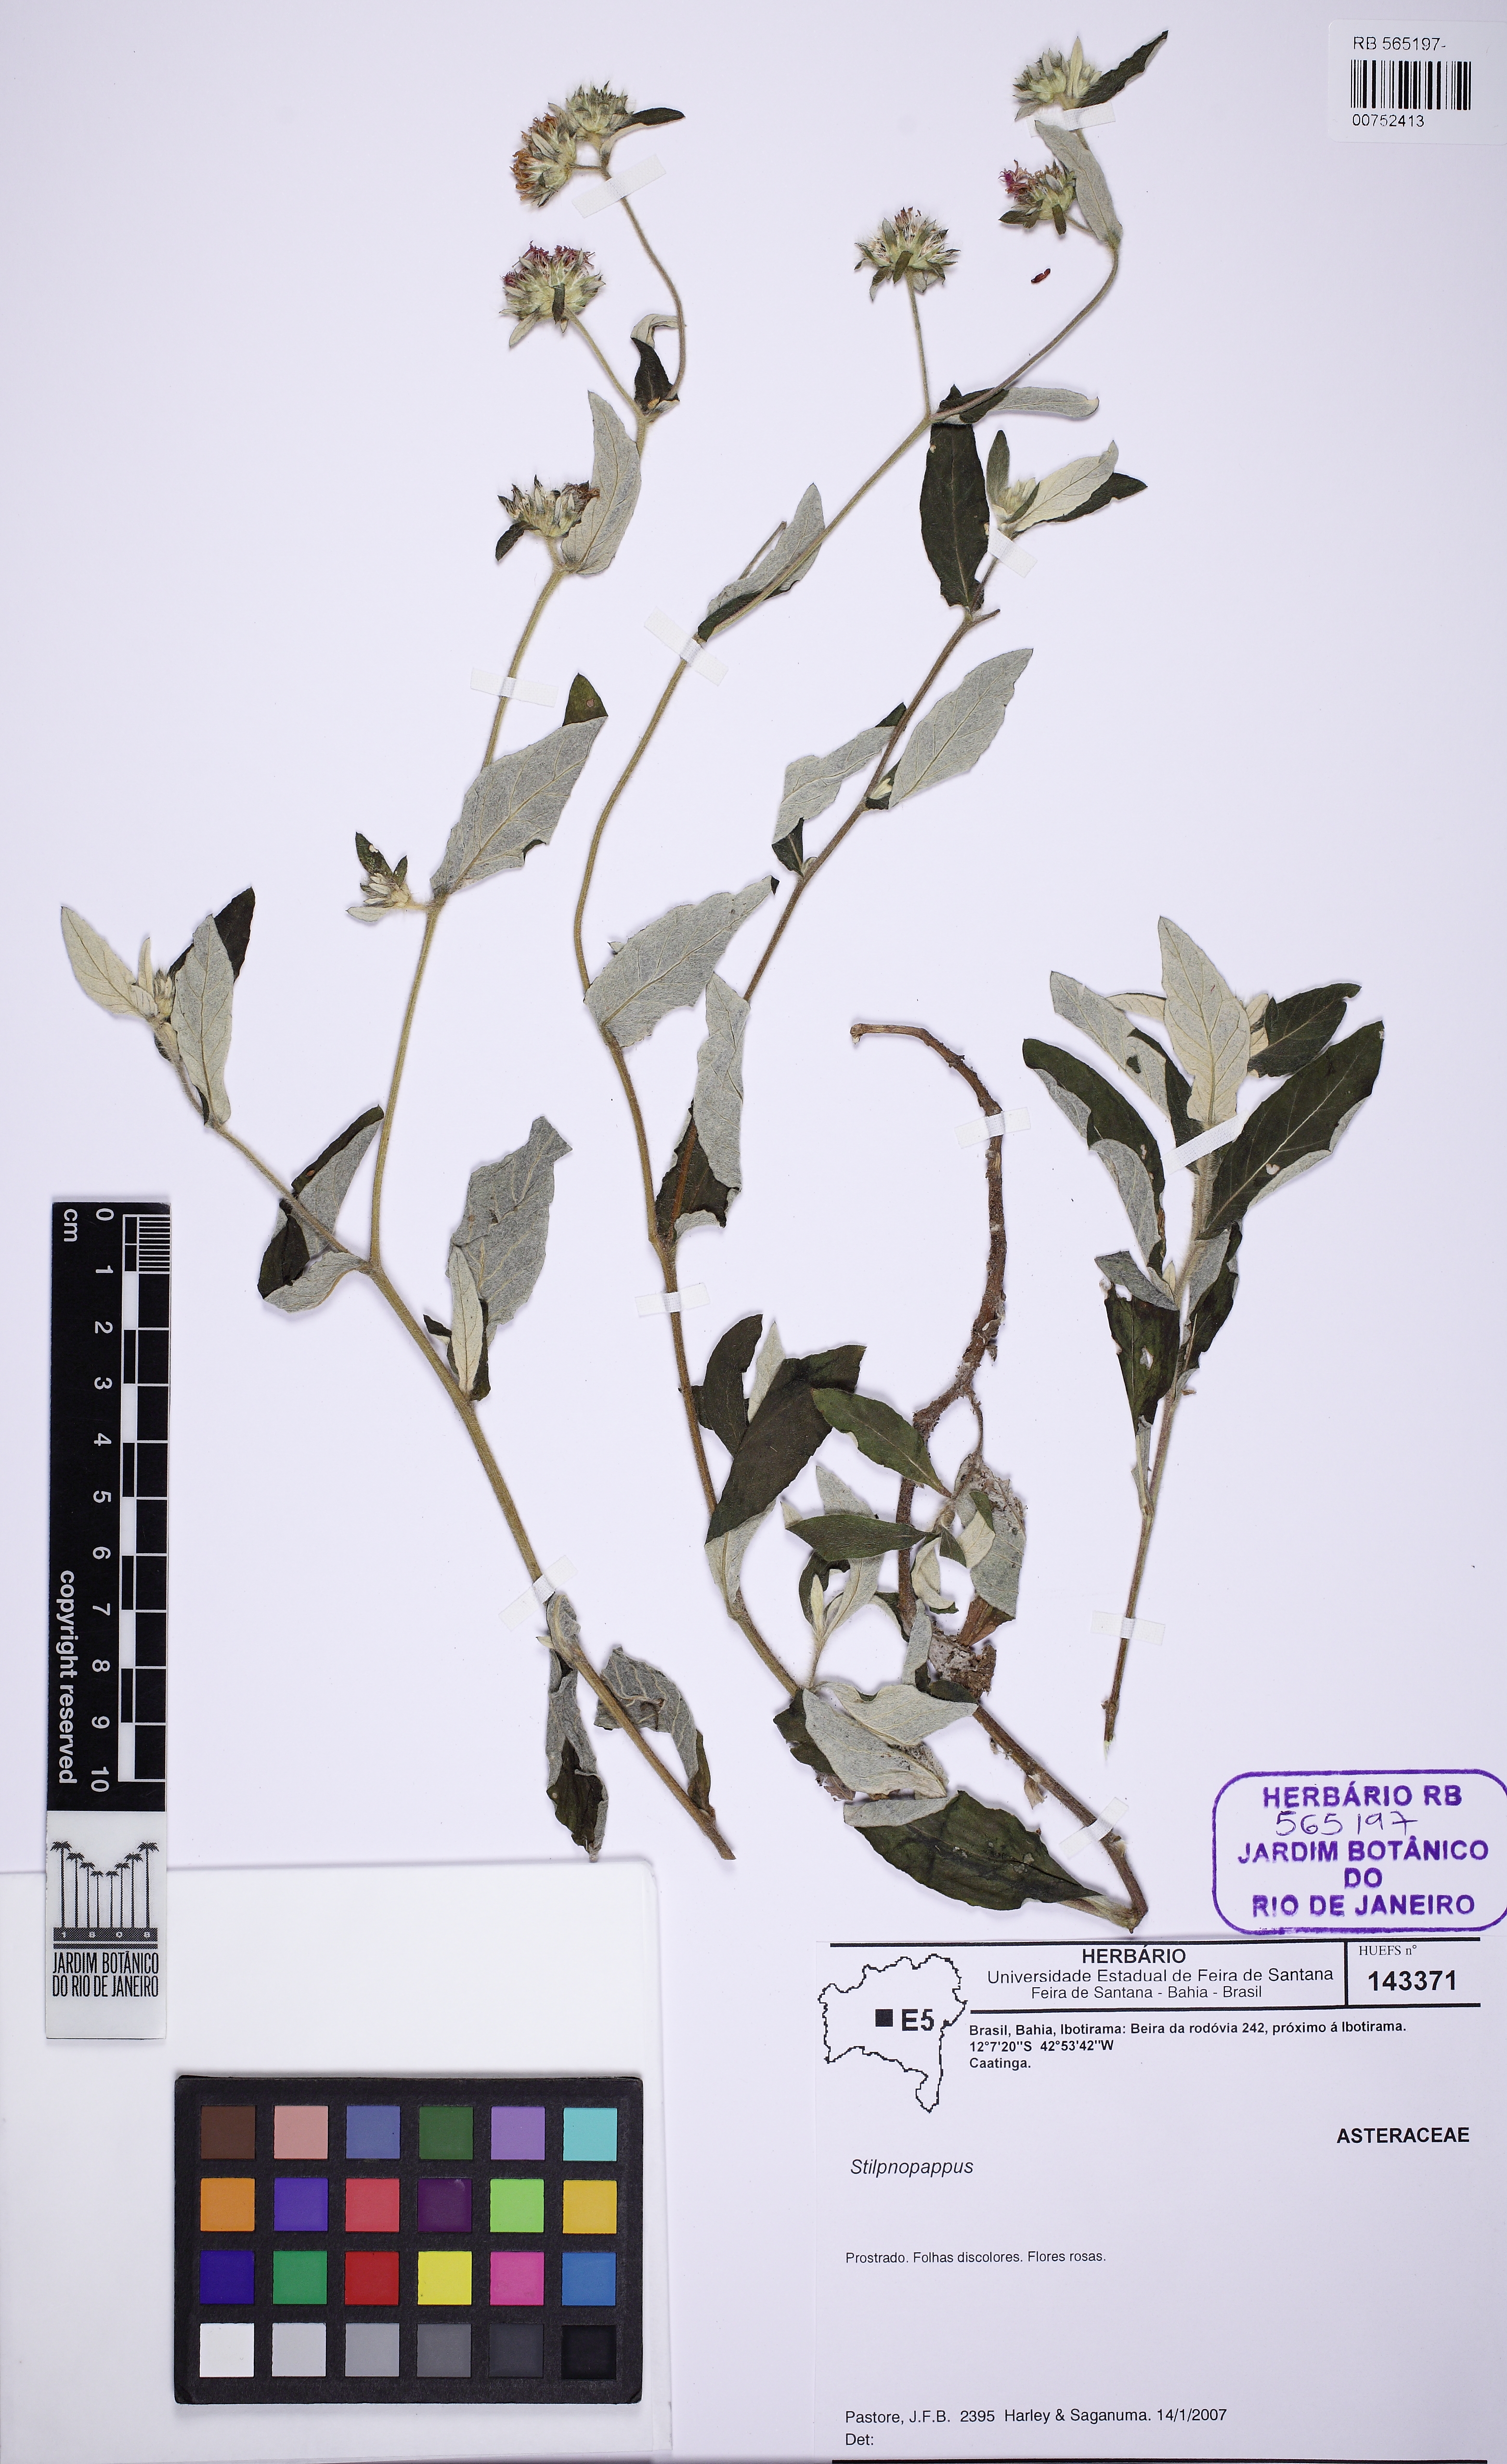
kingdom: Plantae
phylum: Tracheophyta
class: Magnoliopsida
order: Asterales
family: Asteraceae
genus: Stilpnopappus
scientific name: Stilpnopappus
